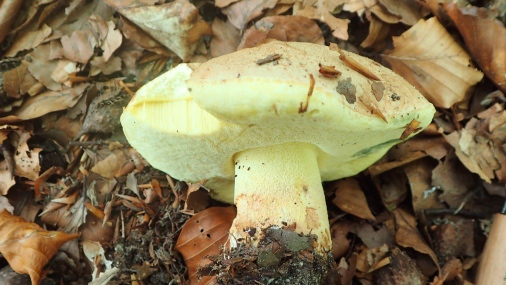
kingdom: Fungi
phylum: Basidiomycota
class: Agaricomycetes
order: Boletales
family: Boletaceae
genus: Butyriboletus
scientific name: Butyriboletus appendiculatus
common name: tenstokket rørhat
